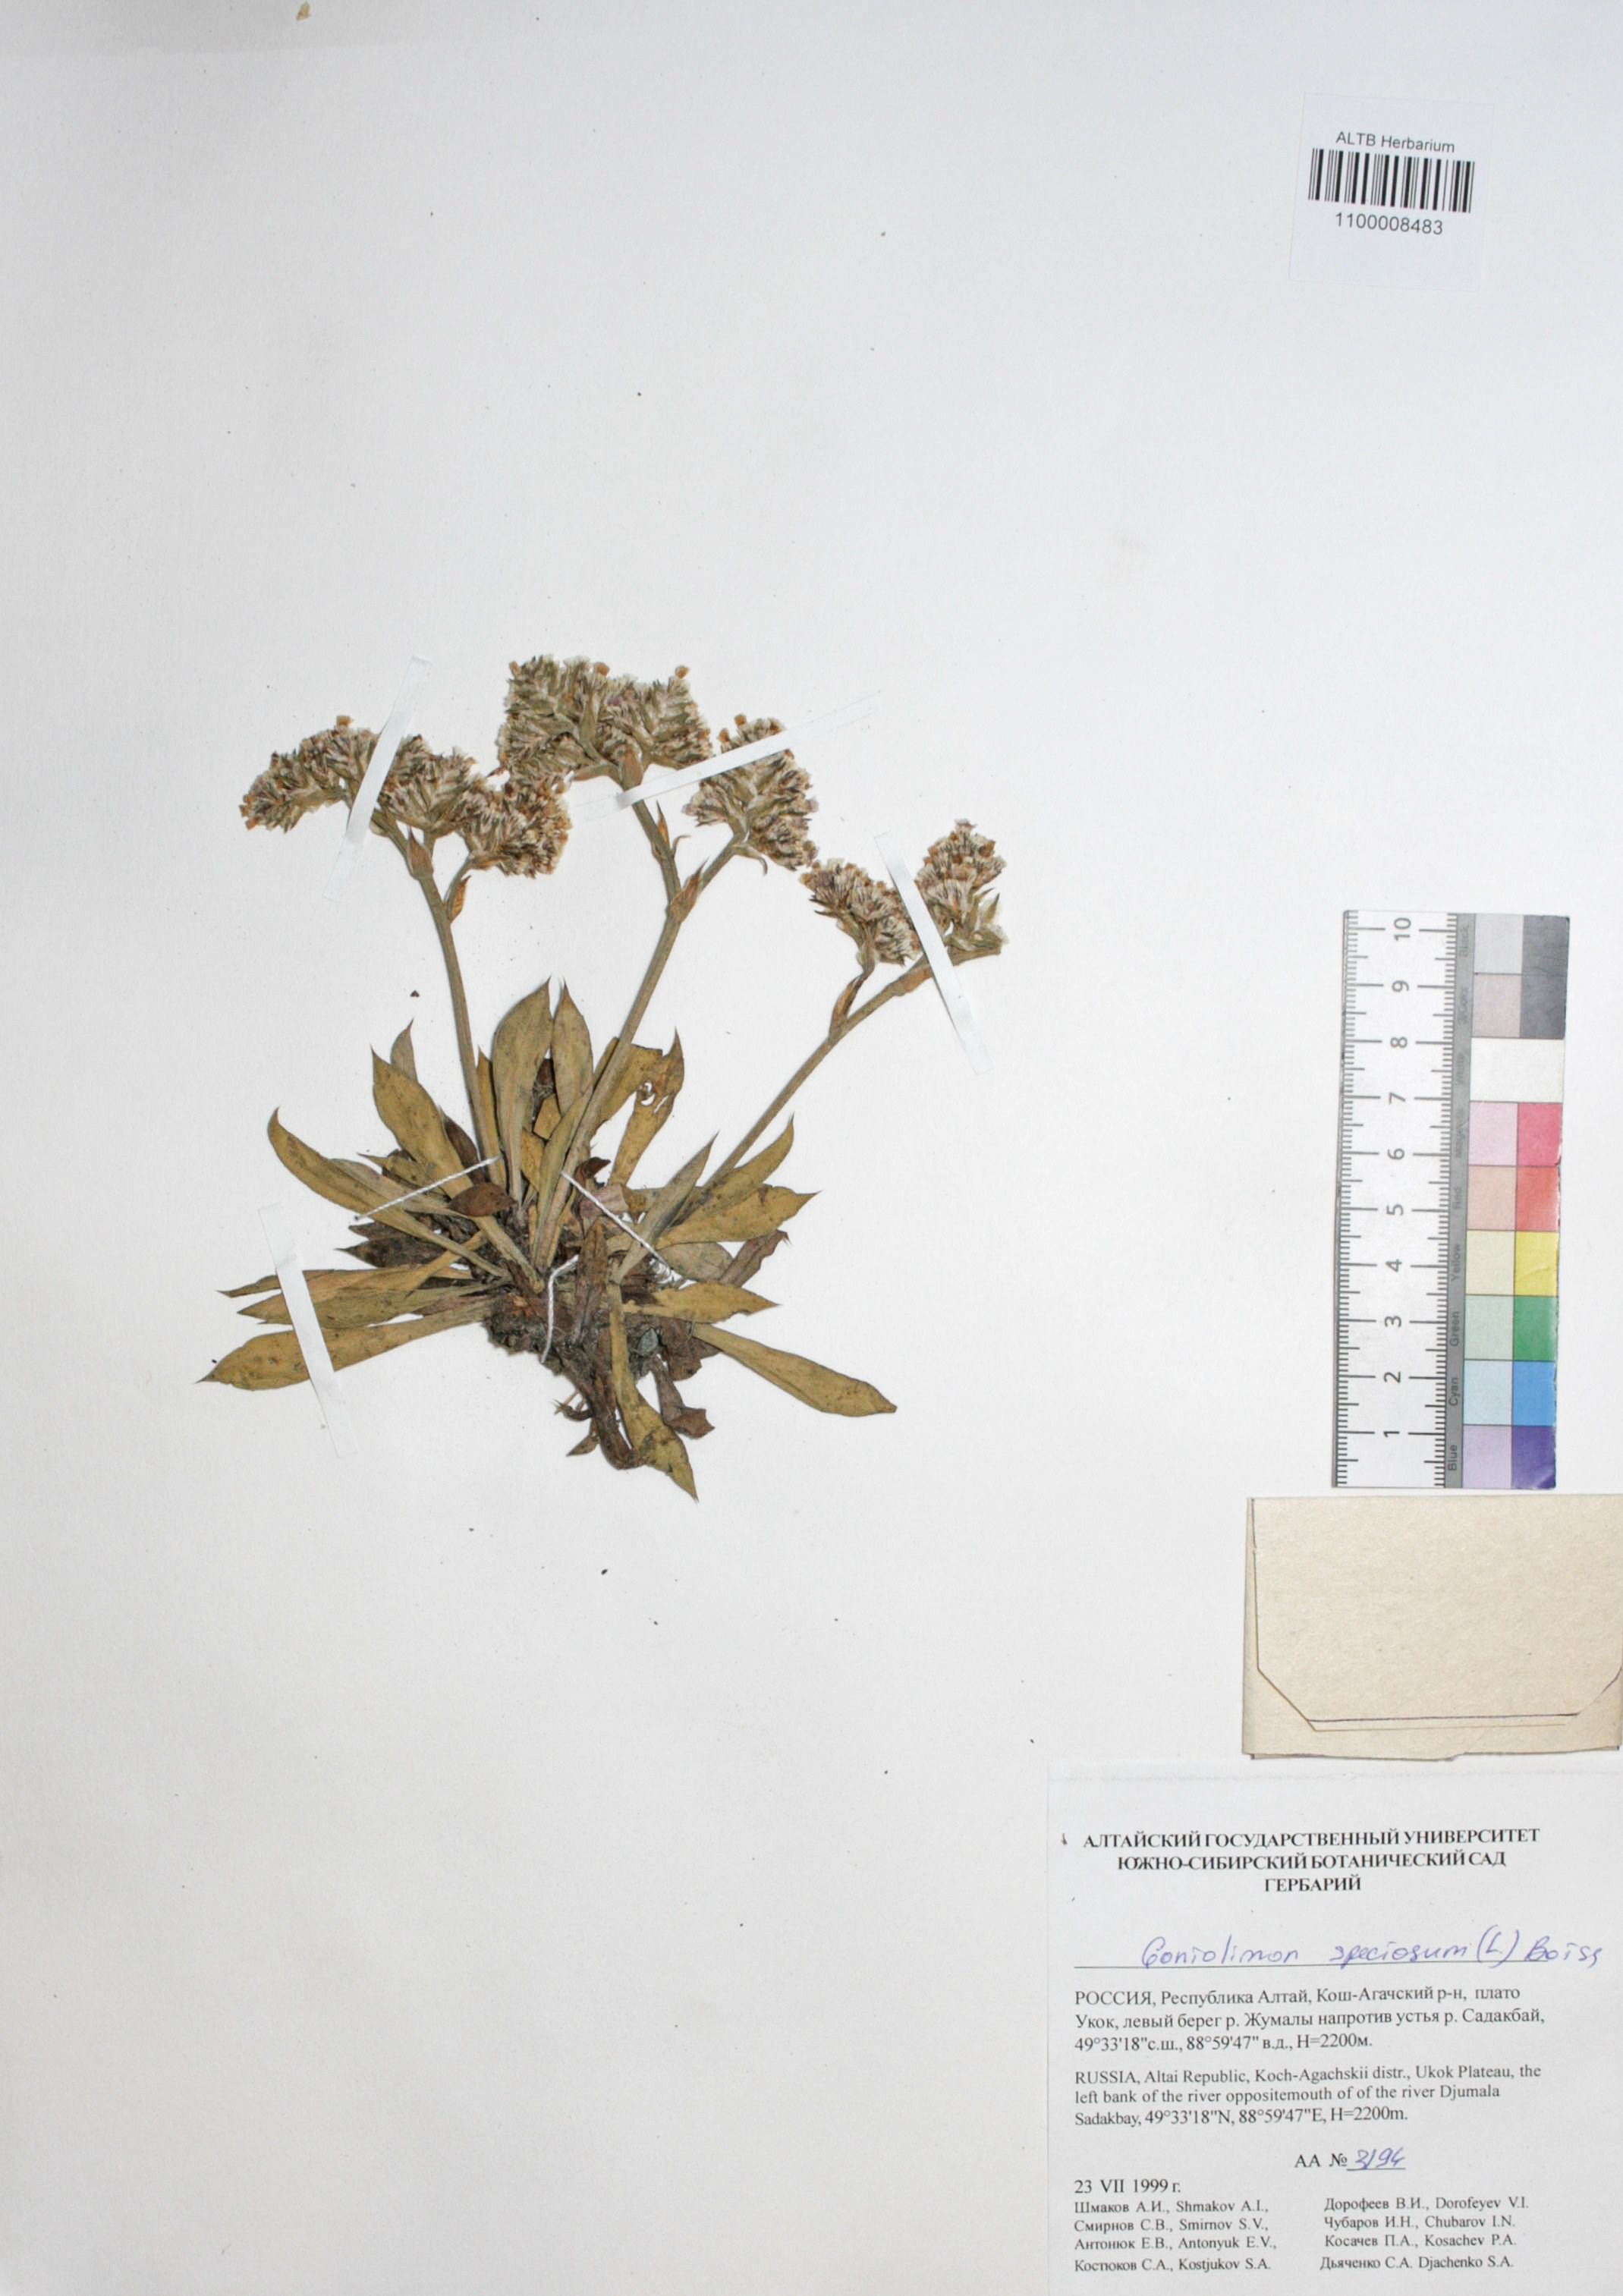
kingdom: Plantae
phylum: Tracheophyta
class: Magnoliopsida
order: Caryophyllales
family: Plumbaginaceae
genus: Goniolimon
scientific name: Goniolimon speciosum
